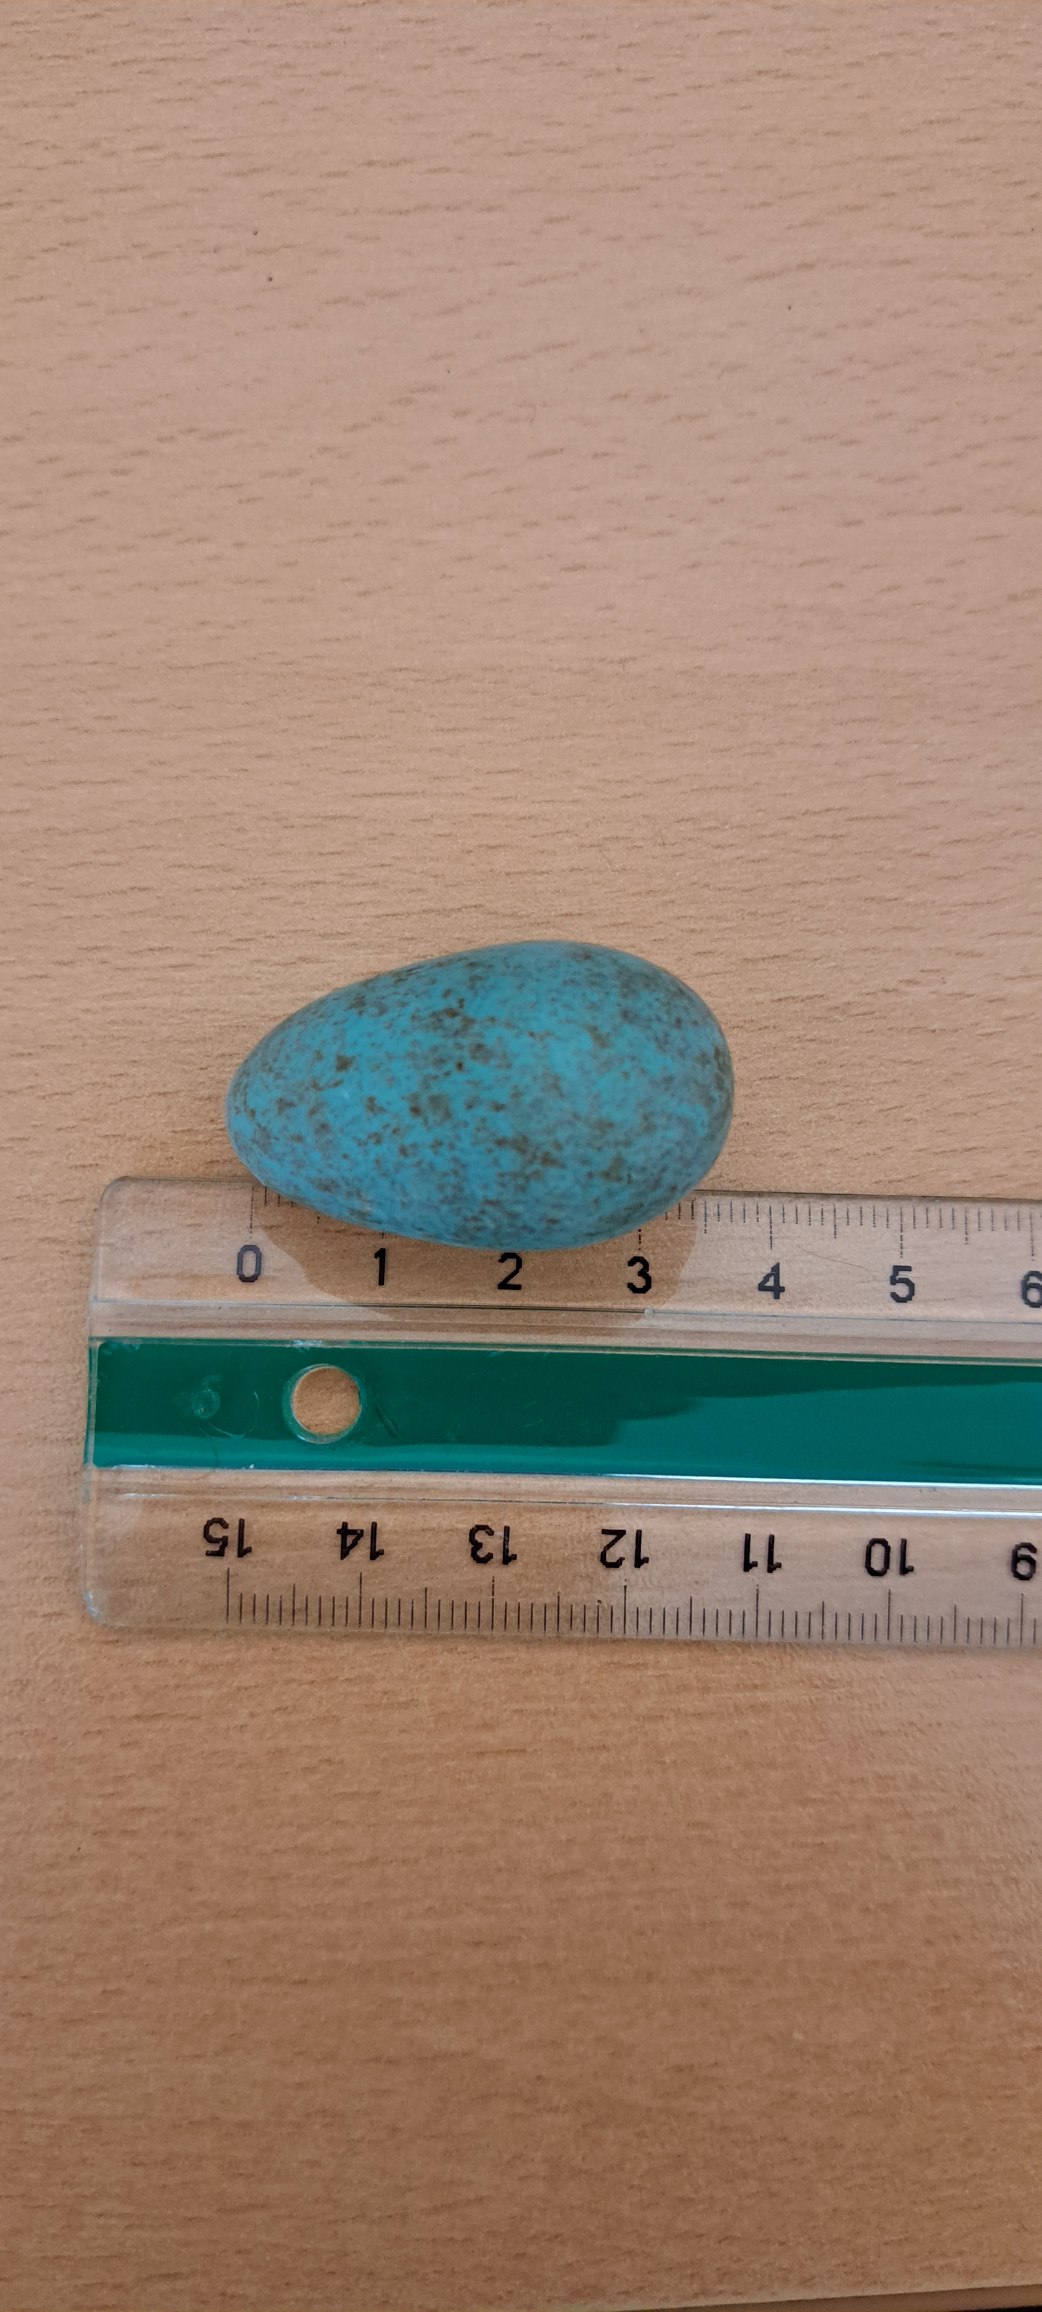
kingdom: Animalia
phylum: Chordata
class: Aves
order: Passeriformes
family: Turdidae
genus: Turdus
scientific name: Turdus merula
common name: Solsort
